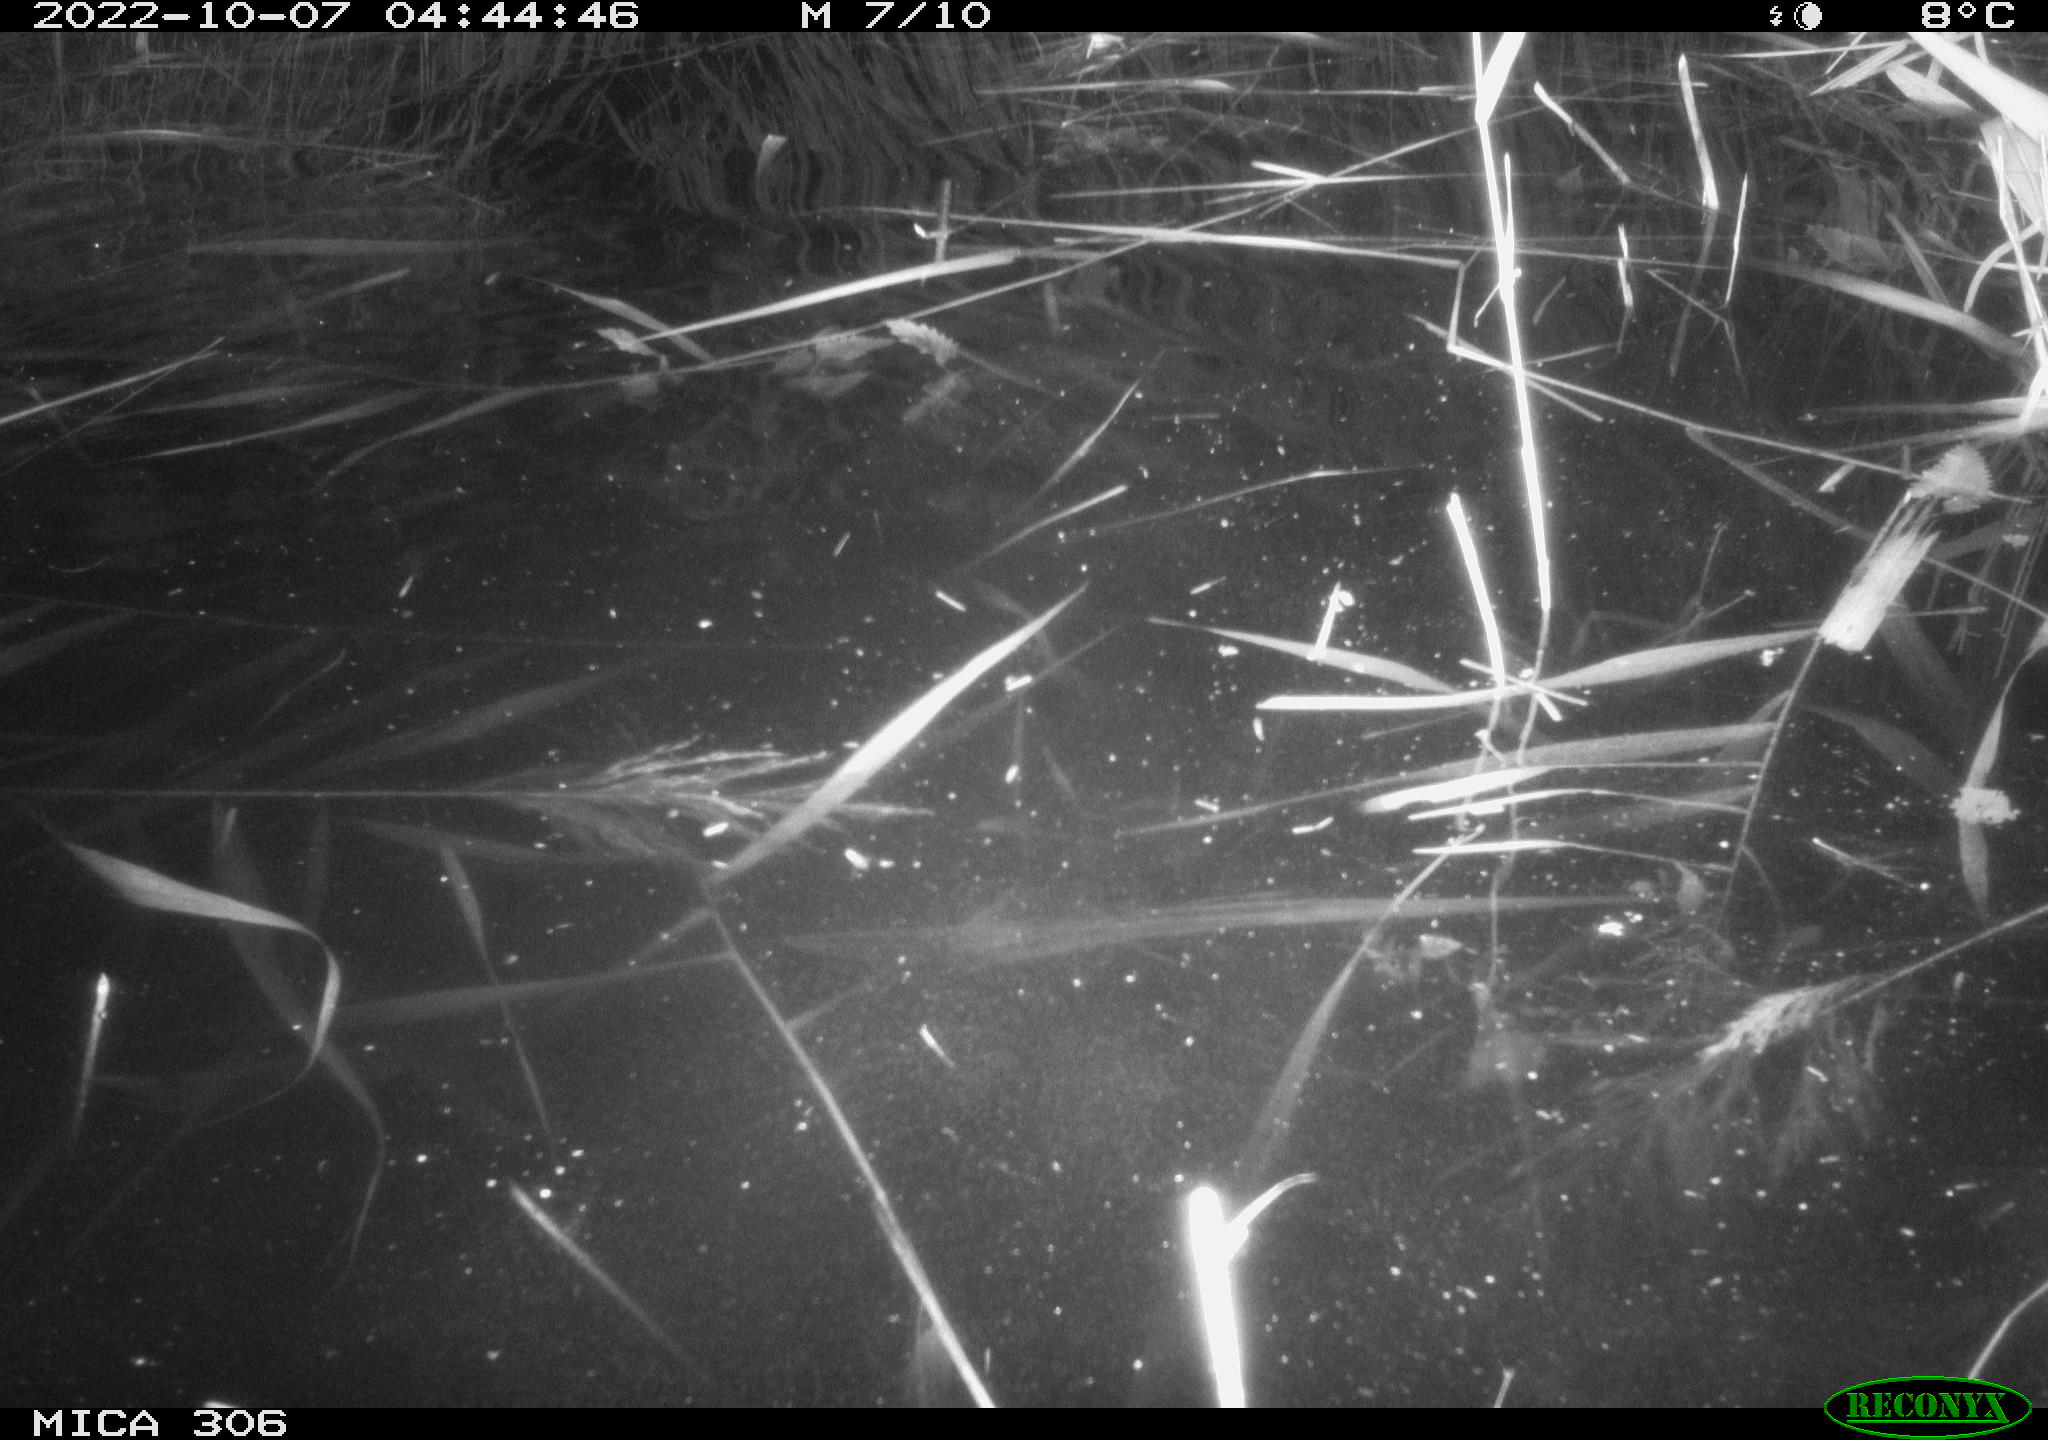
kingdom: Animalia
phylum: Chordata
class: Mammalia
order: Rodentia
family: Muridae
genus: Rattus
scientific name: Rattus norvegicus
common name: Brown rat
